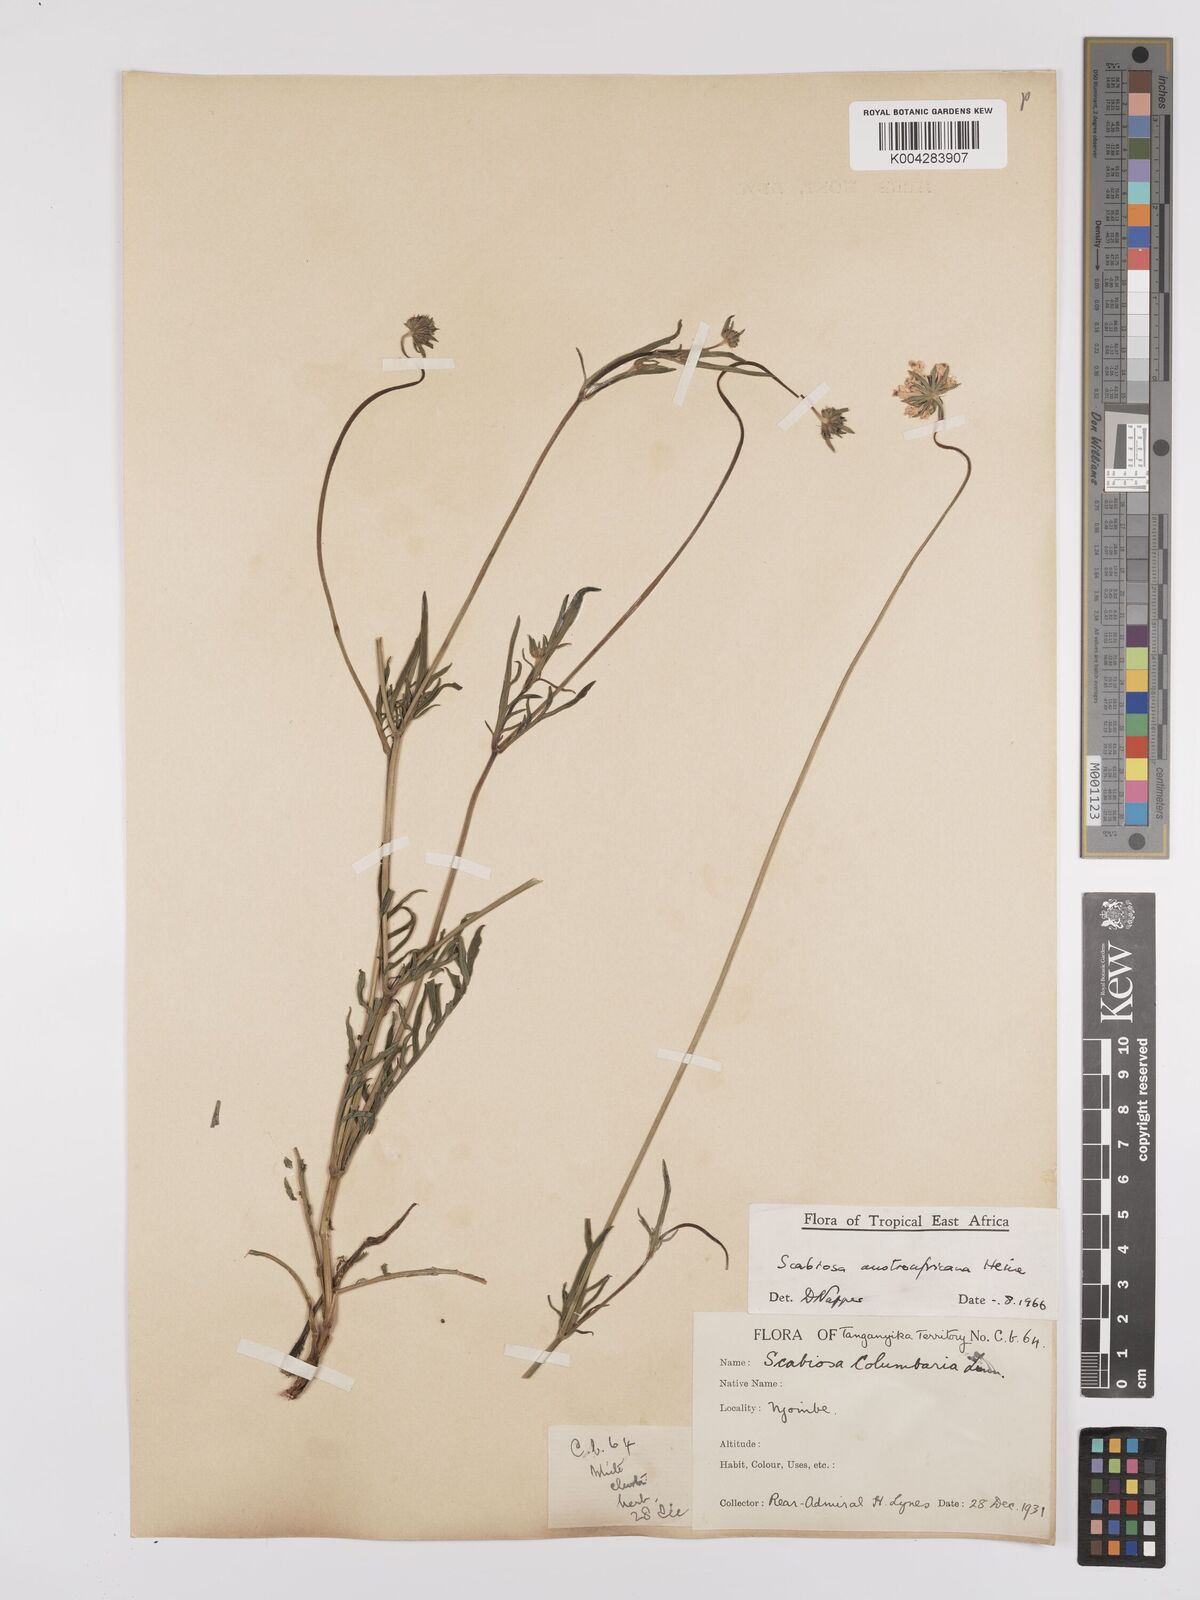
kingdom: Plantae
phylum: Tracheophyta
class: Magnoliopsida
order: Dipsacales
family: Caprifoliaceae
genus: Scabiosa
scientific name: Scabiosa austroafricana
